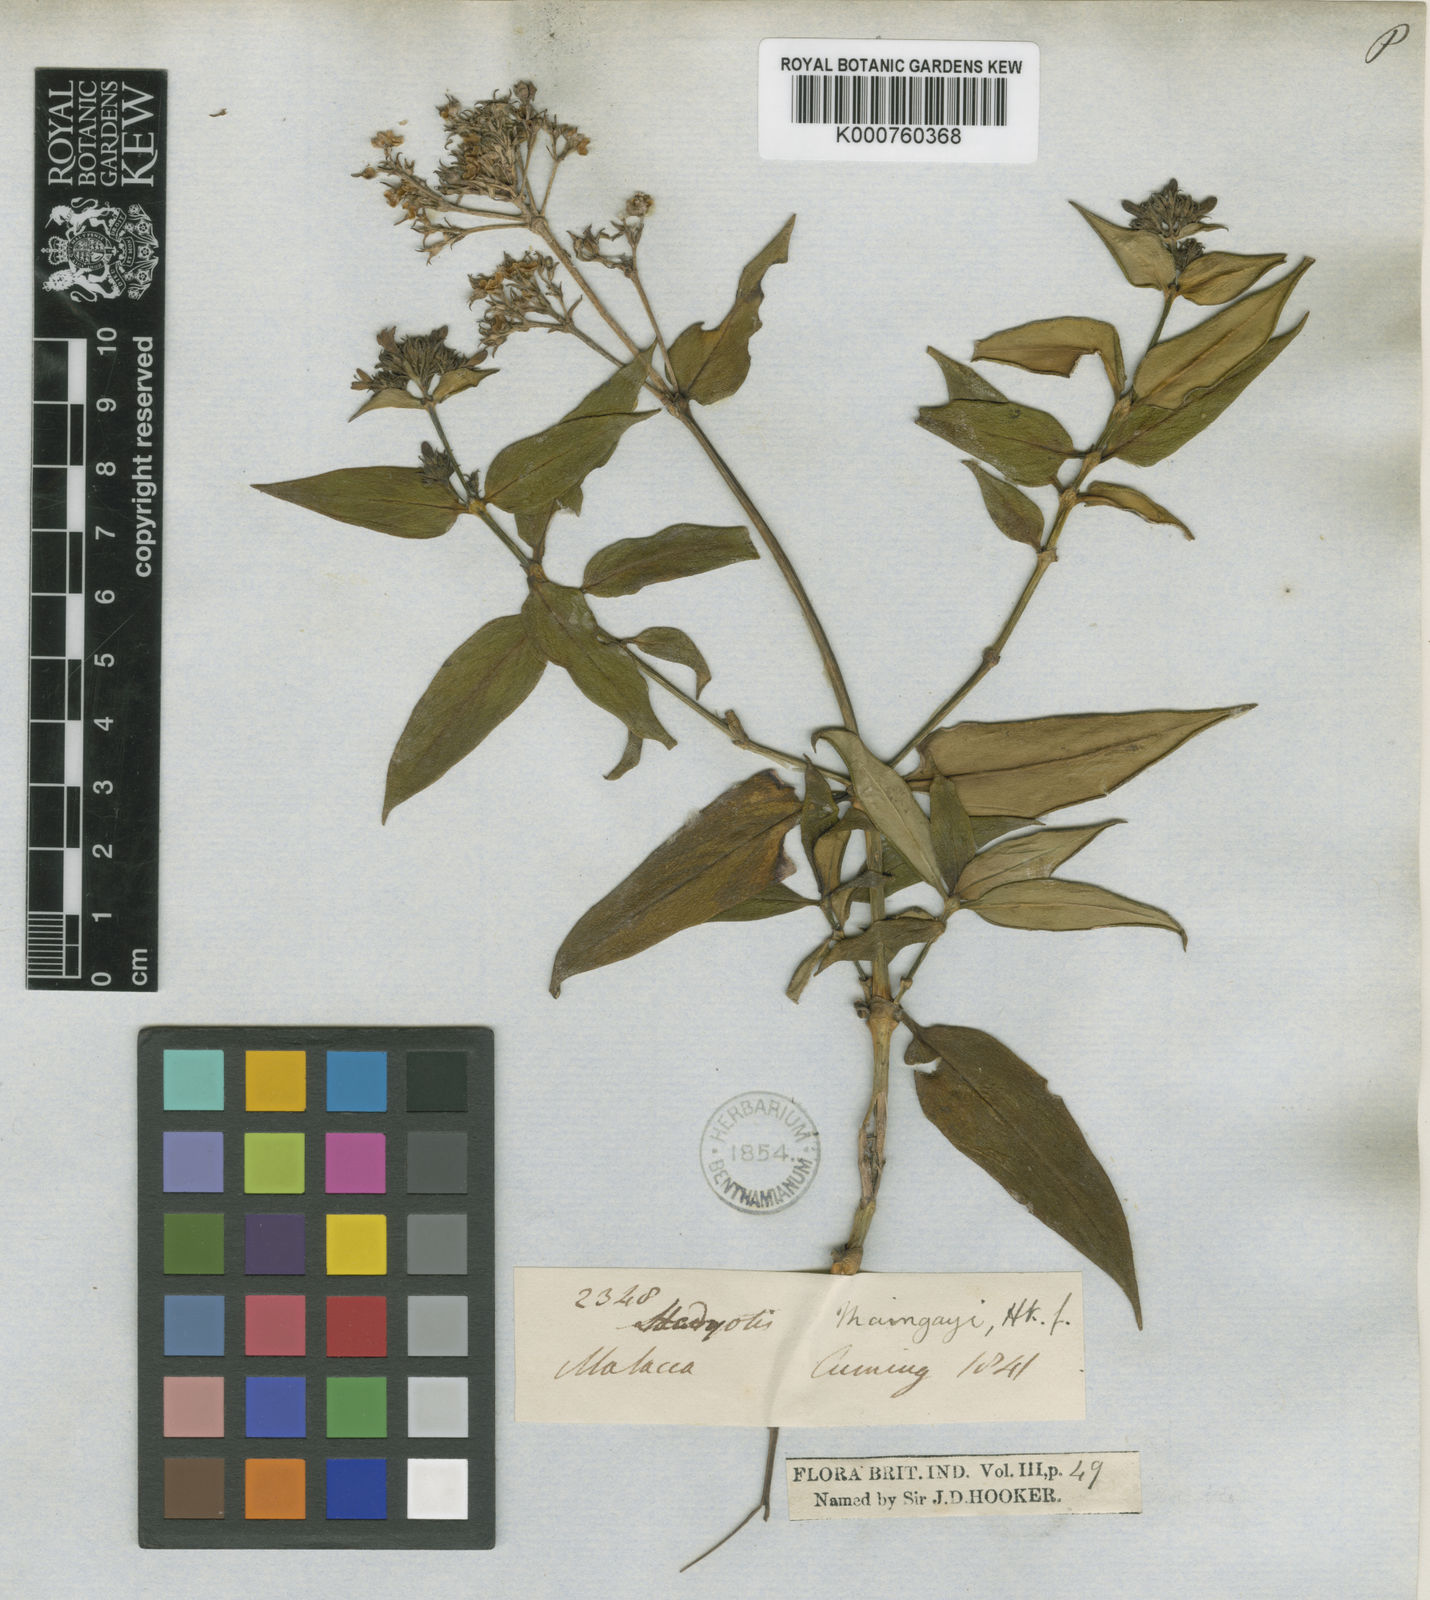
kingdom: Plantae
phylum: Tracheophyta
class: Magnoliopsida
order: Gentianales
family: Rubiaceae
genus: Hedyotis
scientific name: Hedyotis maingayi
